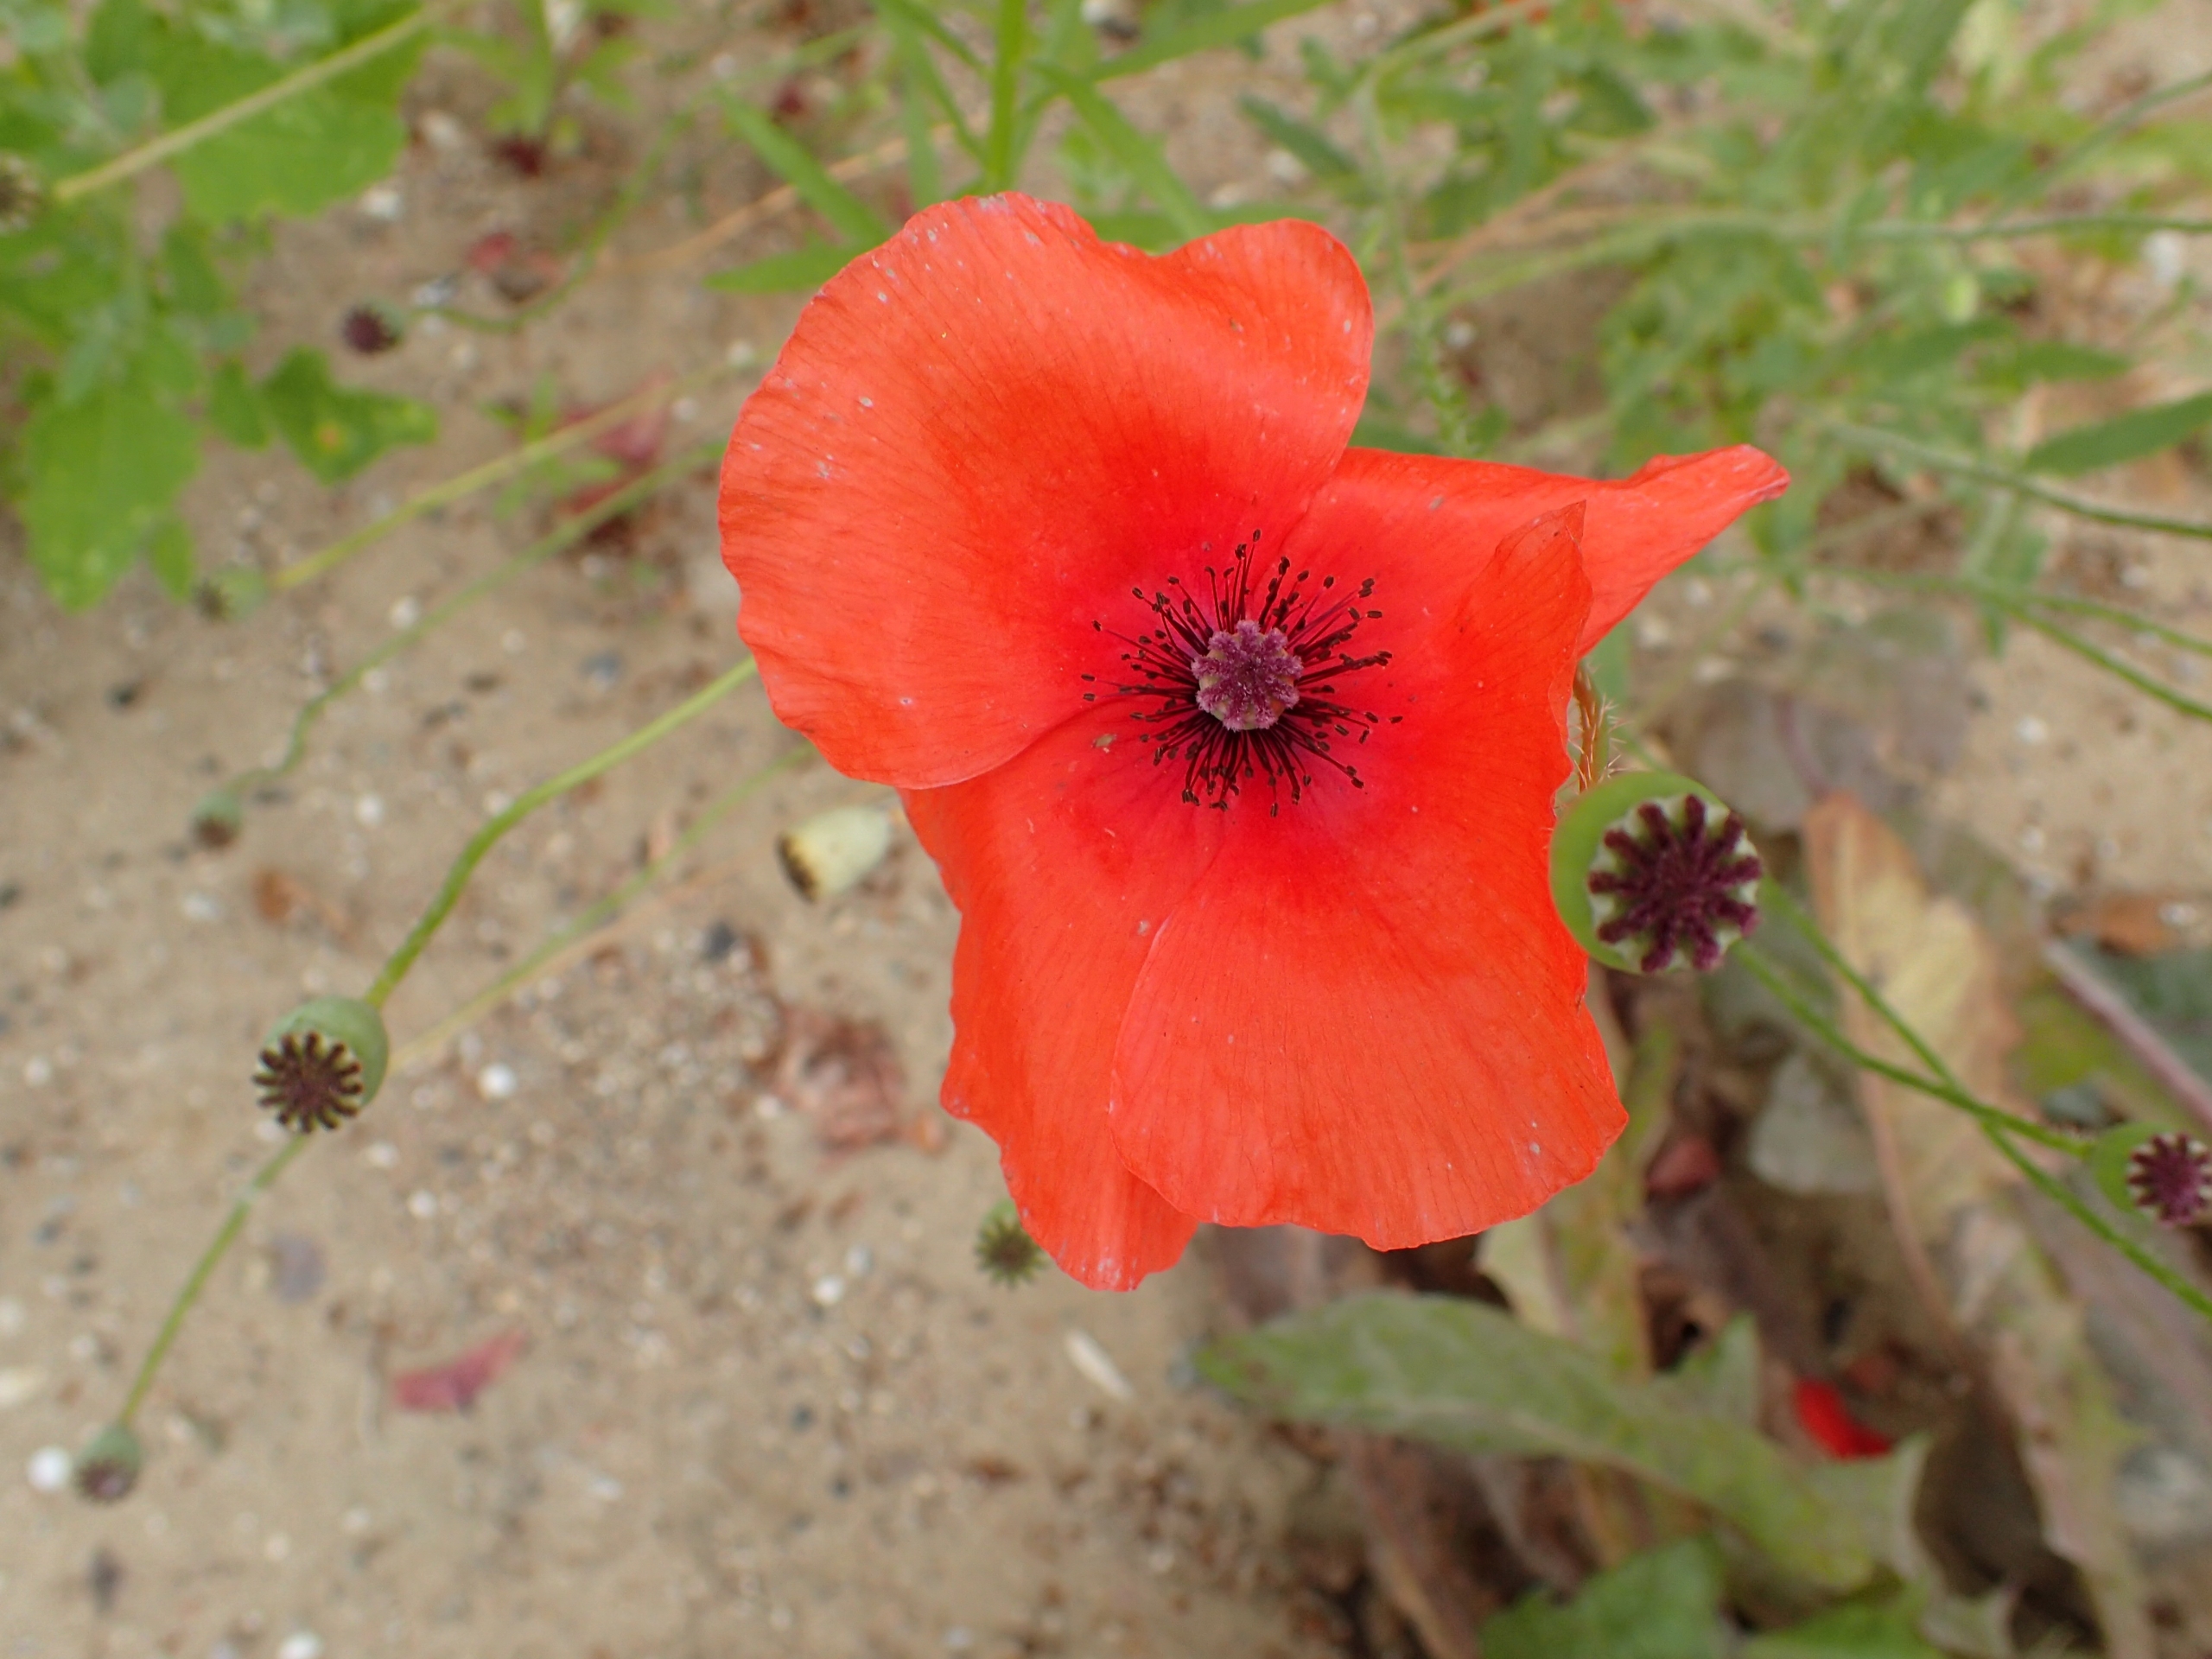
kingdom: Plantae
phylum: Tracheophyta
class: Magnoliopsida
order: Ranunculales
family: Papaveraceae
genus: Papaver
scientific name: Papaver rhoeas
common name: Korn-valmue
